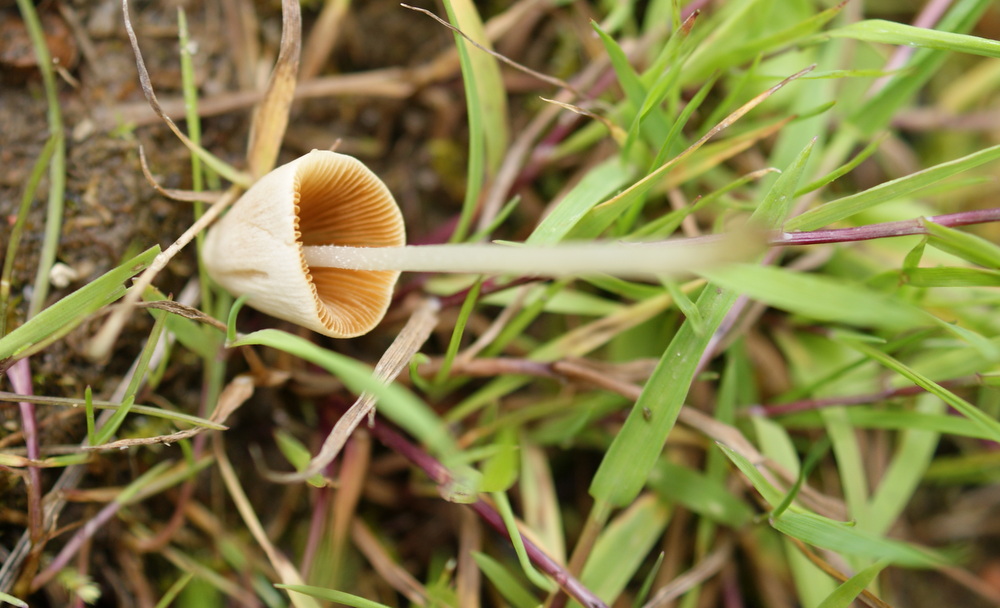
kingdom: Fungi
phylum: Basidiomycota
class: Agaricomycetes
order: Agaricales
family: Bolbitiaceae
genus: Conocybe
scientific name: Conocybe apala
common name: mælkehvid keglehat
